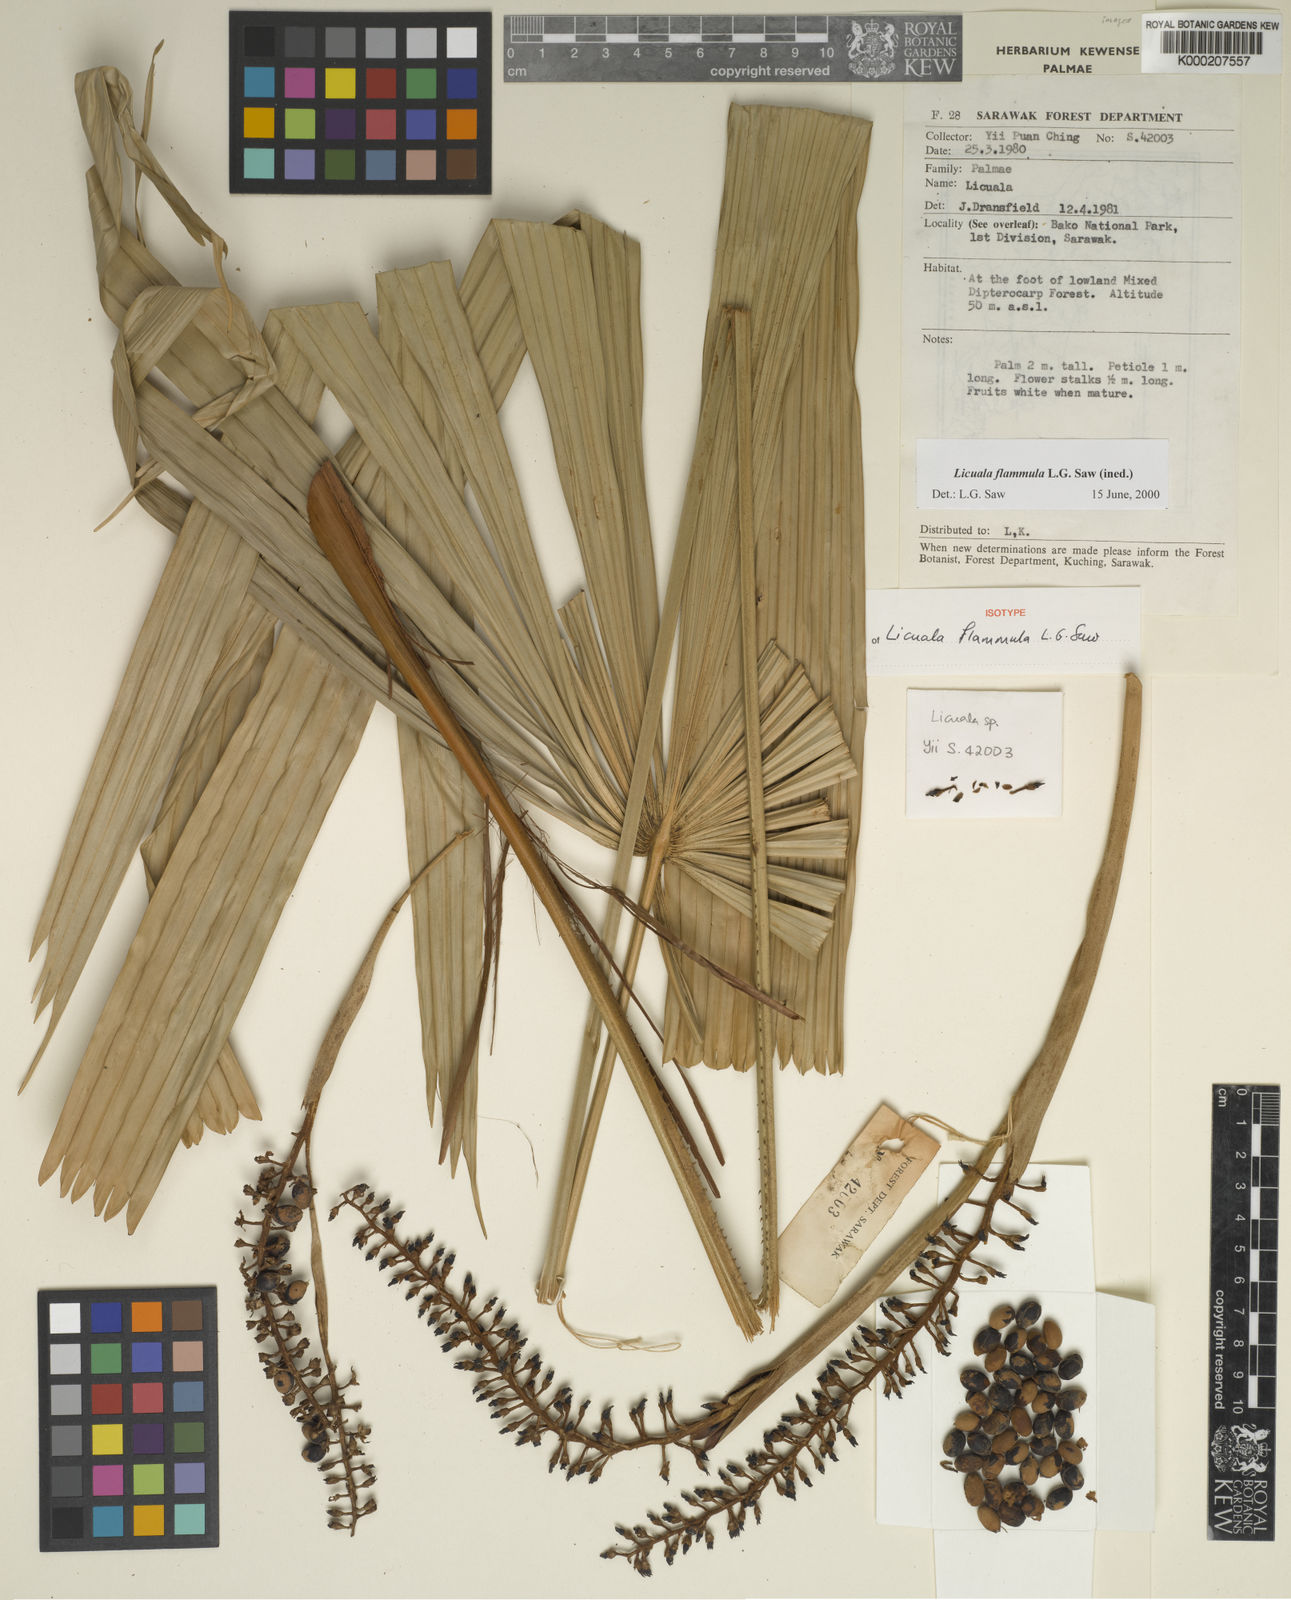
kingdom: Plantae
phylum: Tracheophyta
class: Liliopsida
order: Arecales
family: Arecaceae
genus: Licuala
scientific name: Licuala flammula
